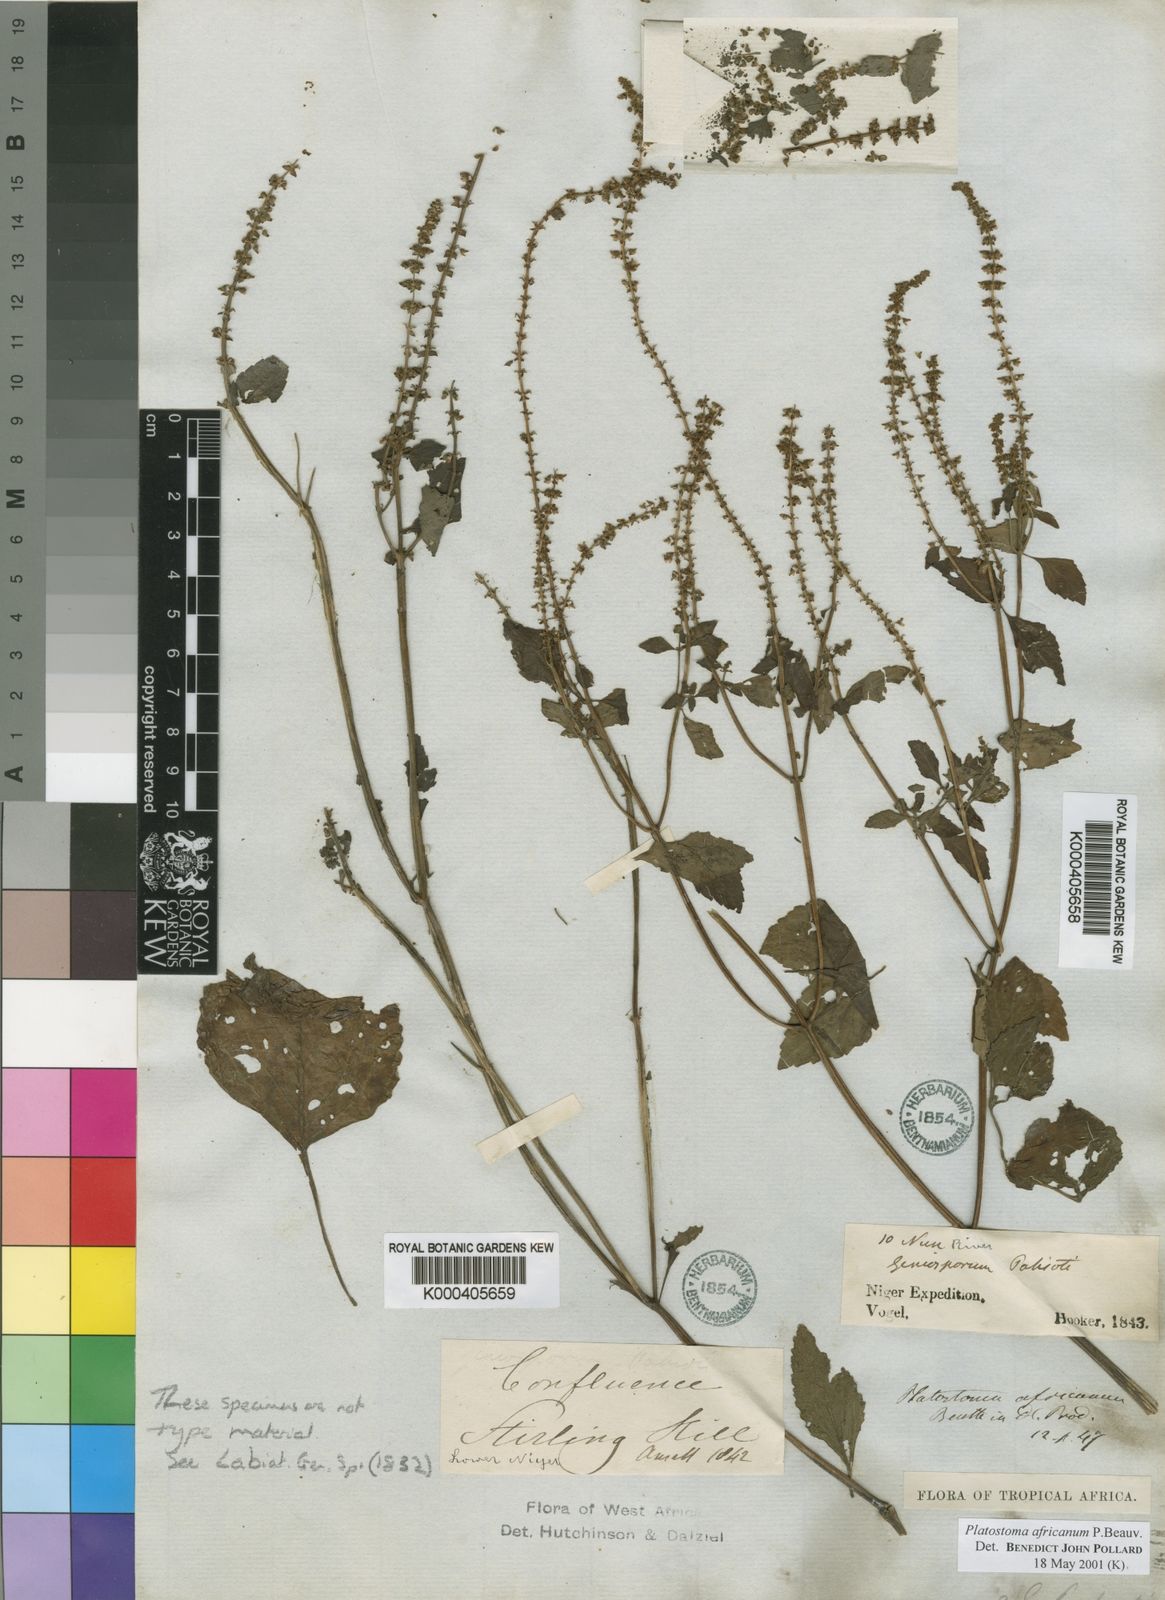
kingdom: Plantae
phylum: Tracheophyta
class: Magnoliopsida
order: Lamiales
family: Lamiaceae
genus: Platostoma
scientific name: Platostoma africanum
